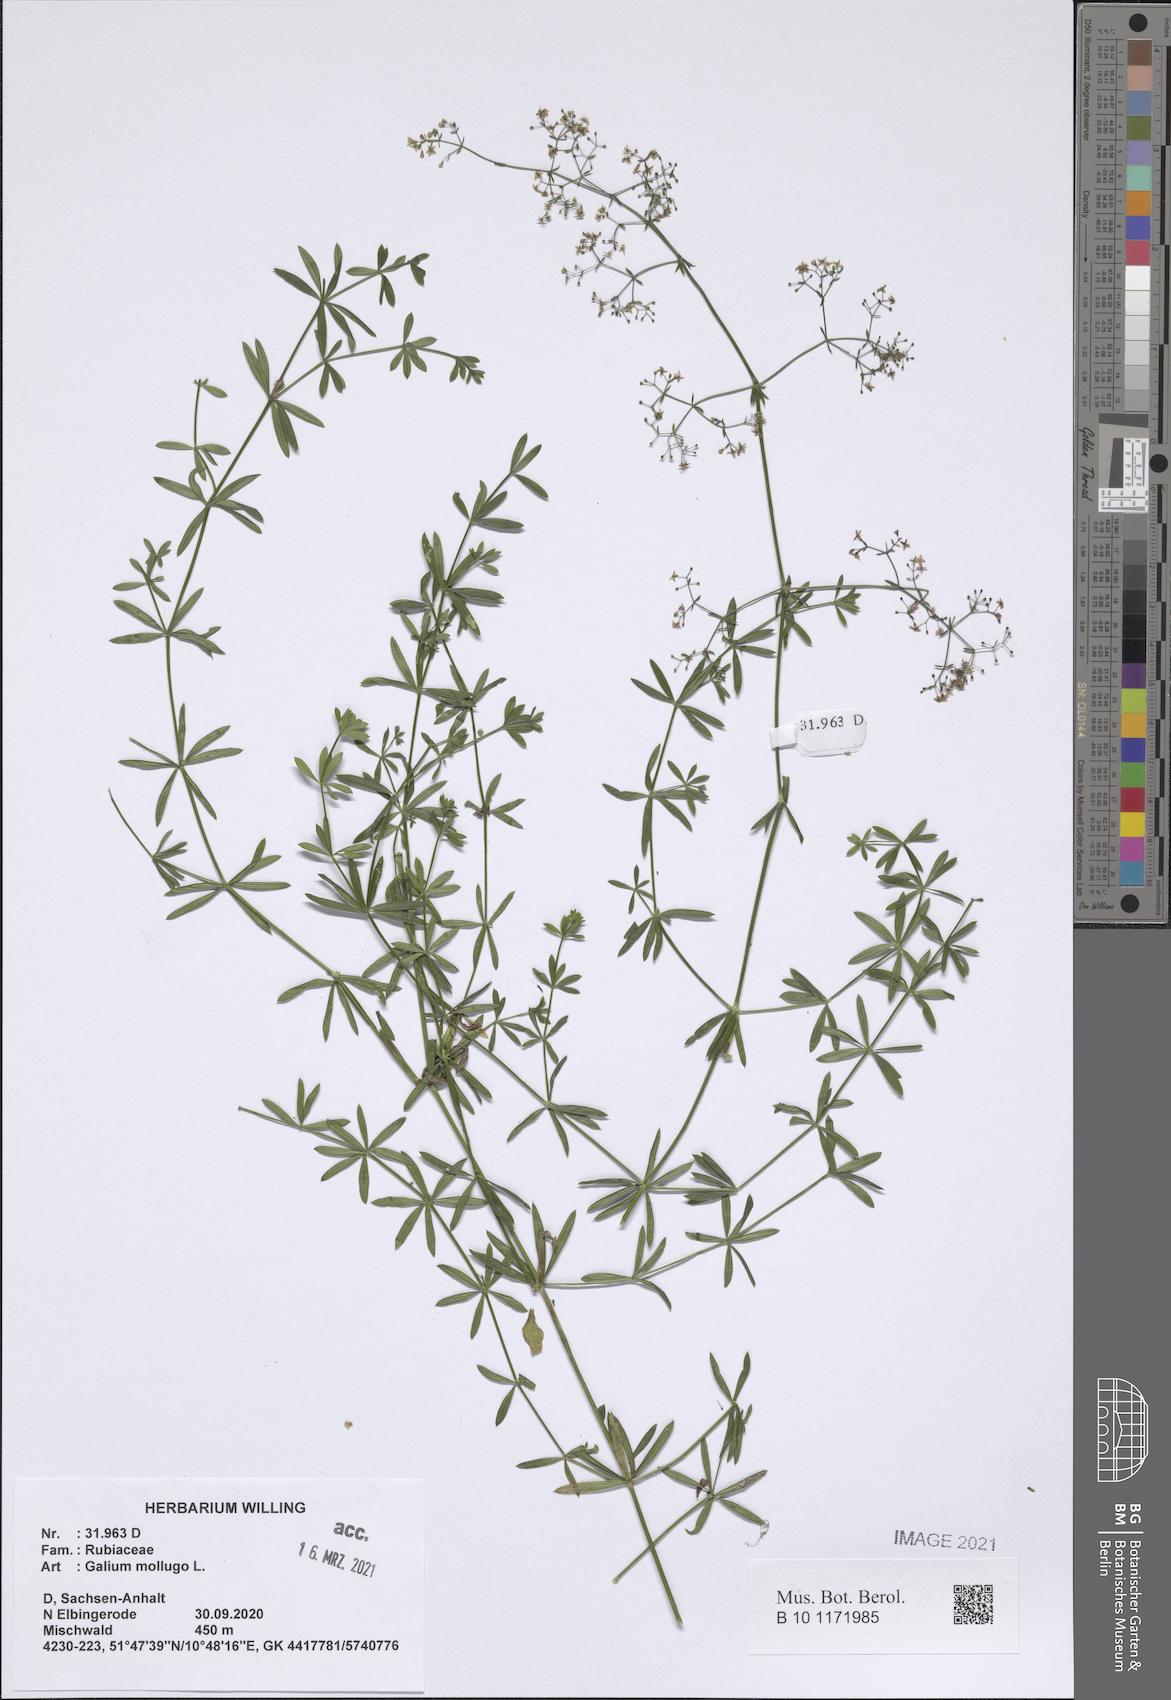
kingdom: Plantae
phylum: Tracheophyta
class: Magnoliopsida
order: Gentianales
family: Rubiaceae
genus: Galium
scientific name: Galium mollugo
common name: Hedge bedstraw
